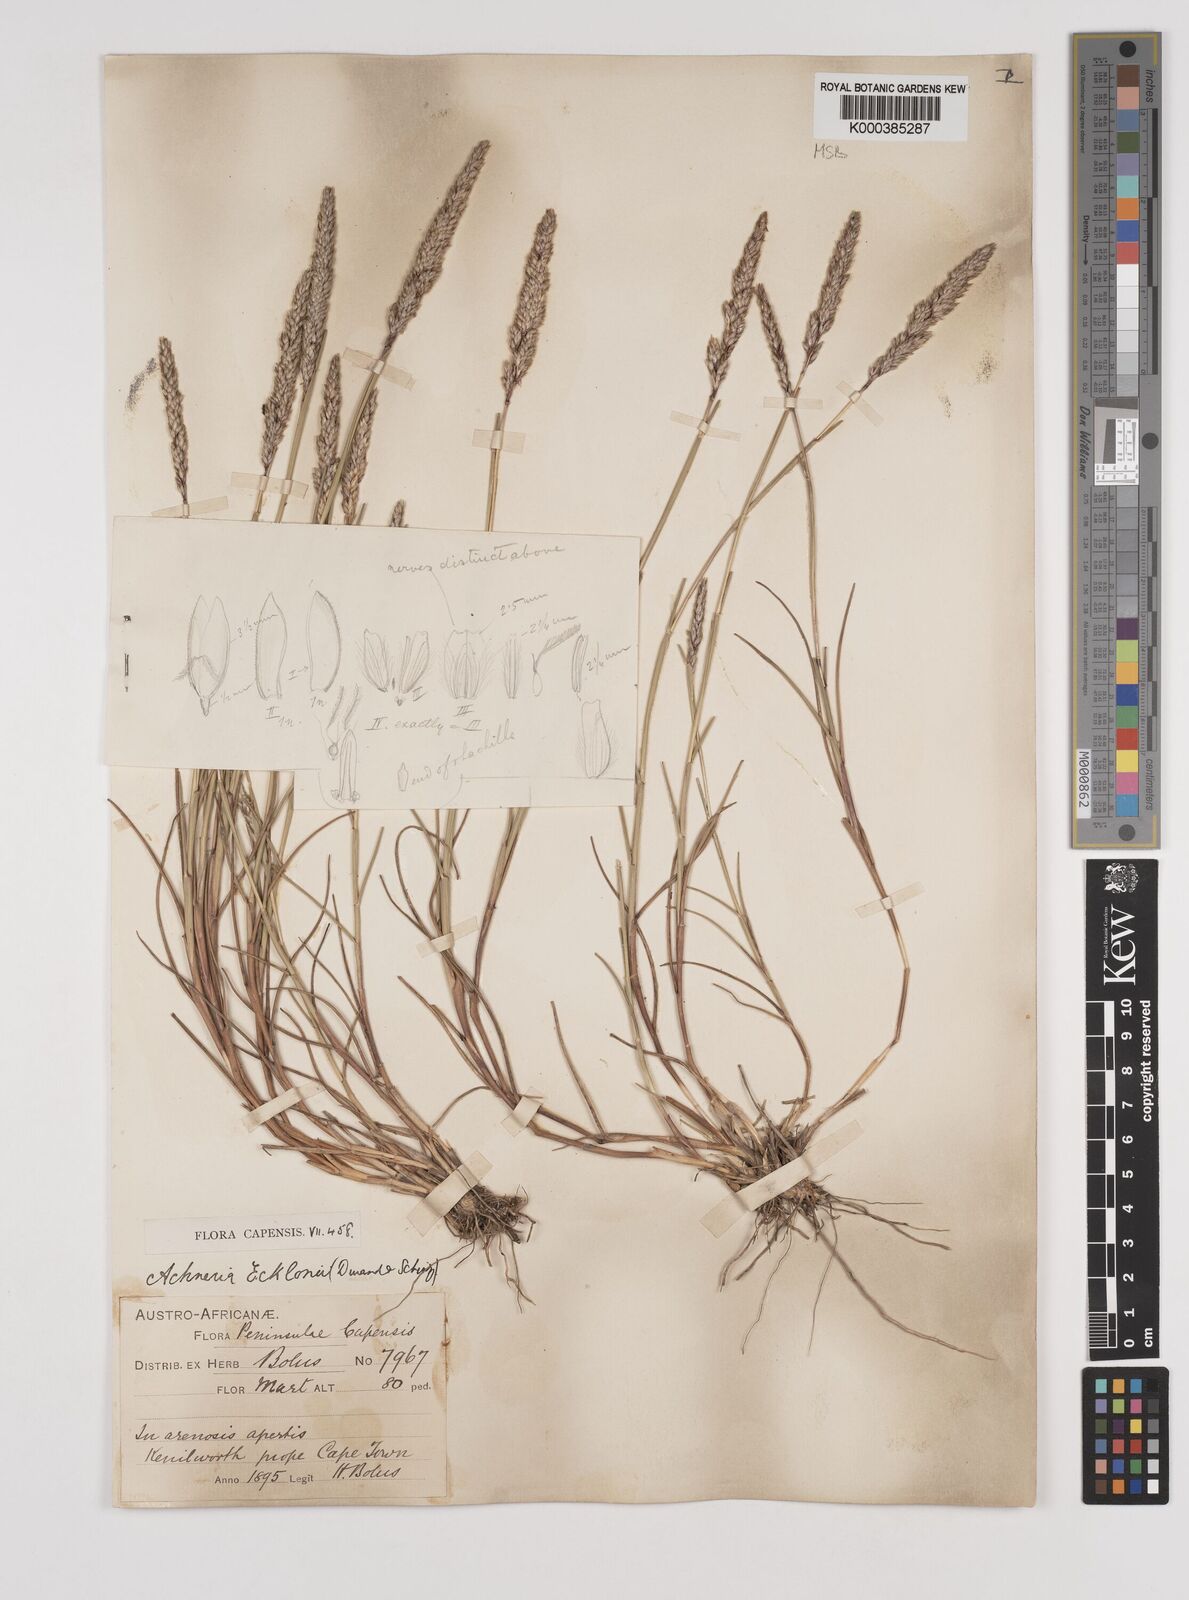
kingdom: Plantae
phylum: Tracheophyta
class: Liliopsida
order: Poales
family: Poaceae
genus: Pentameris
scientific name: Pentameris ecklonii
